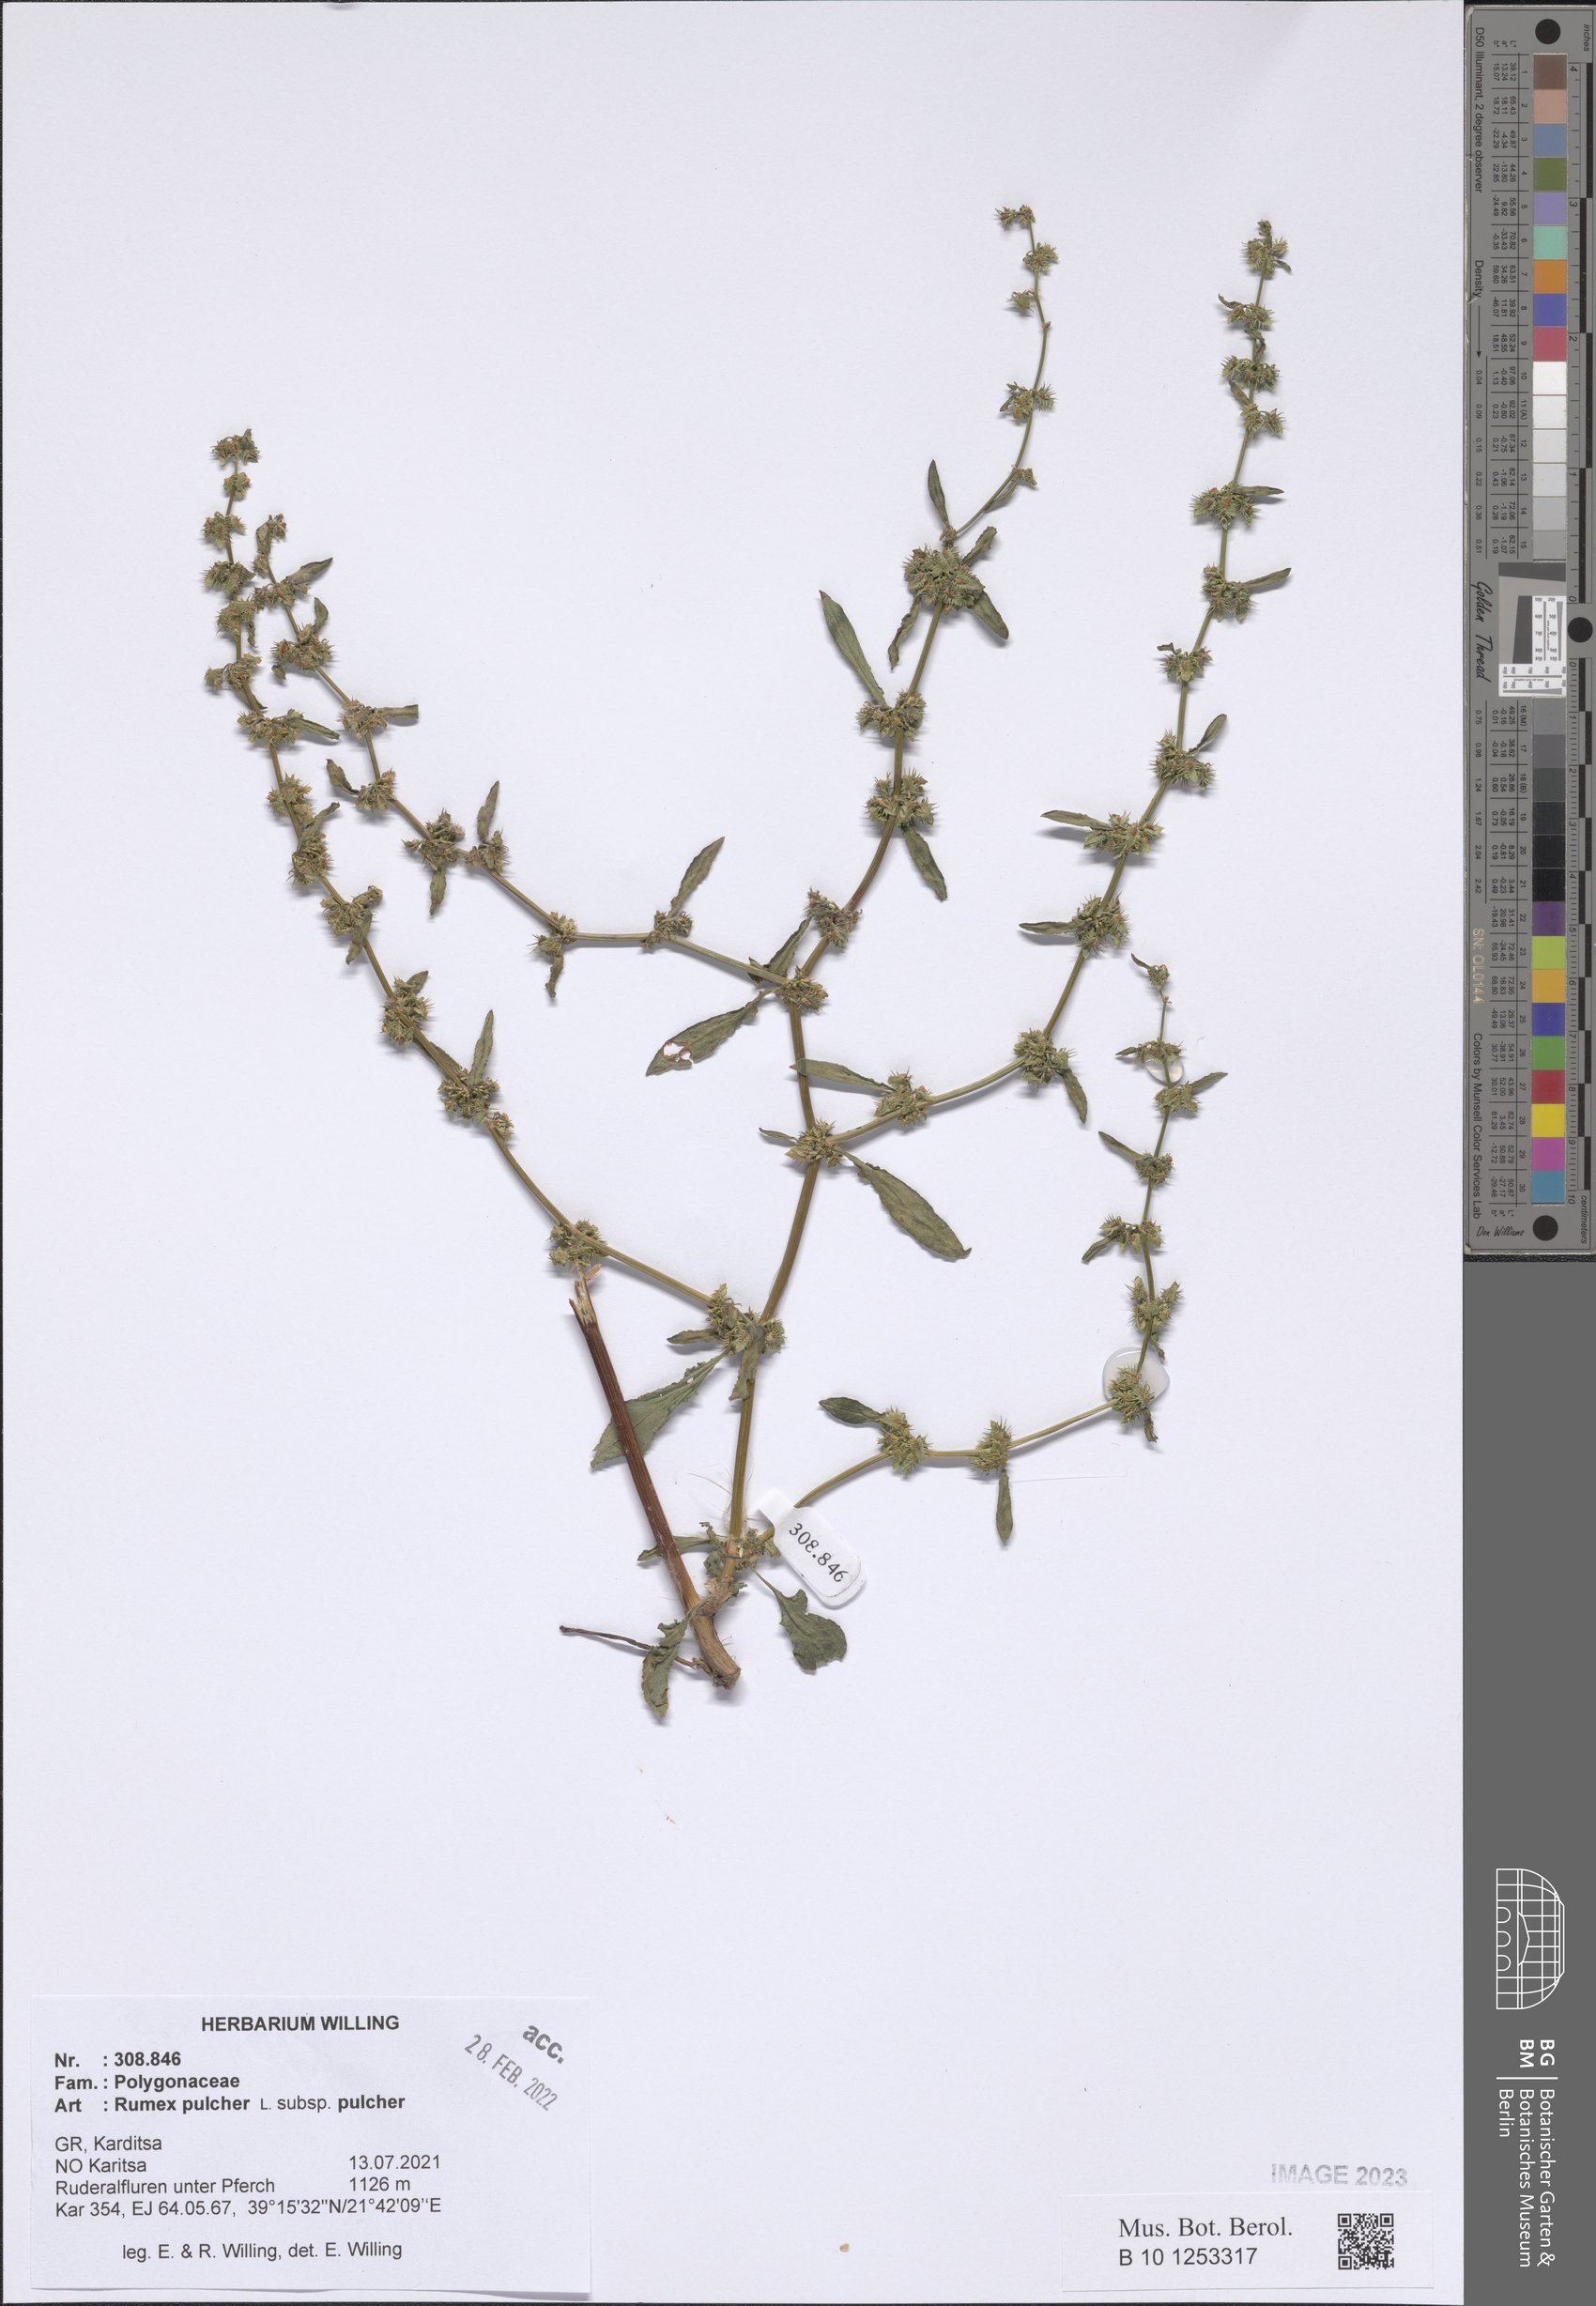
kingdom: Plantae
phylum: Tracheophyta
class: Magnoliopsida
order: Caryophyllales
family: Polygonaceae
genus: Rumex
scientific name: Rumex pulcher
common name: Fiddle dock
